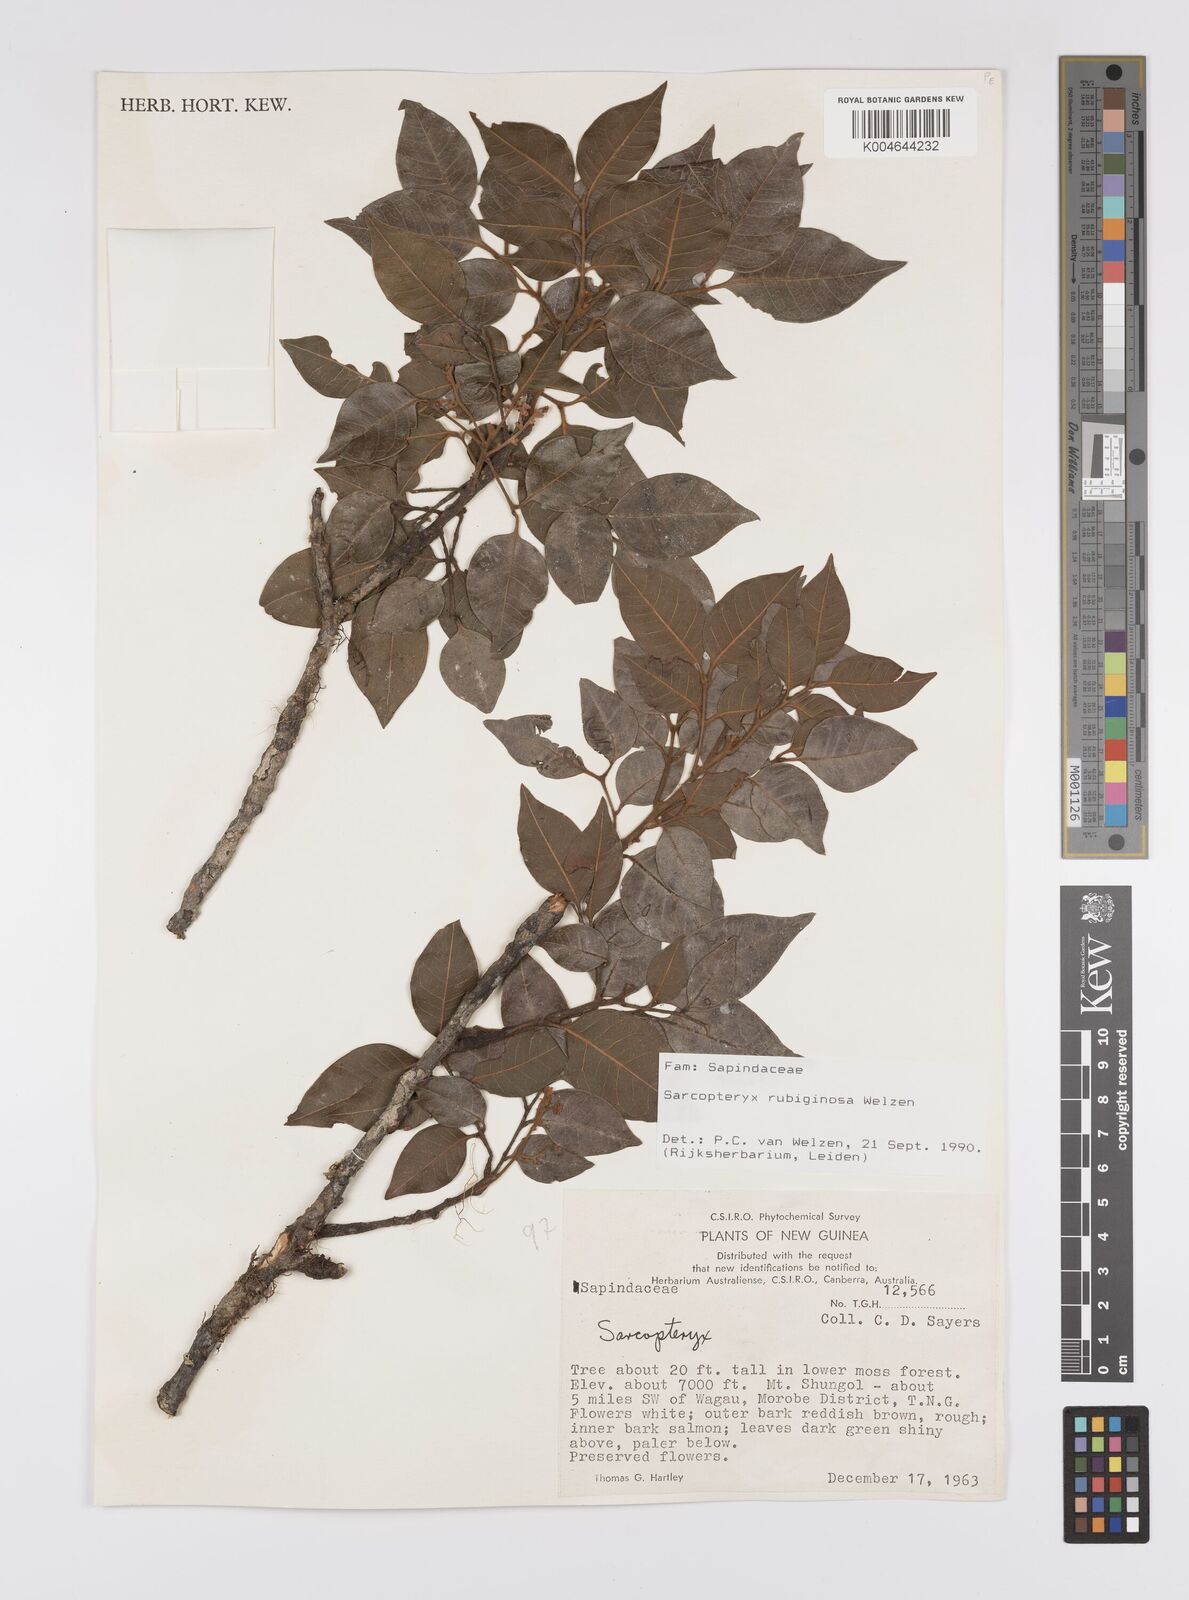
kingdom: Plantae
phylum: Tracheophyta
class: Magnoliopsida
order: Sapindales
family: Sapindaceae
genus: Sarcopteryx
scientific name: Sarcopteryx rubiginosa
